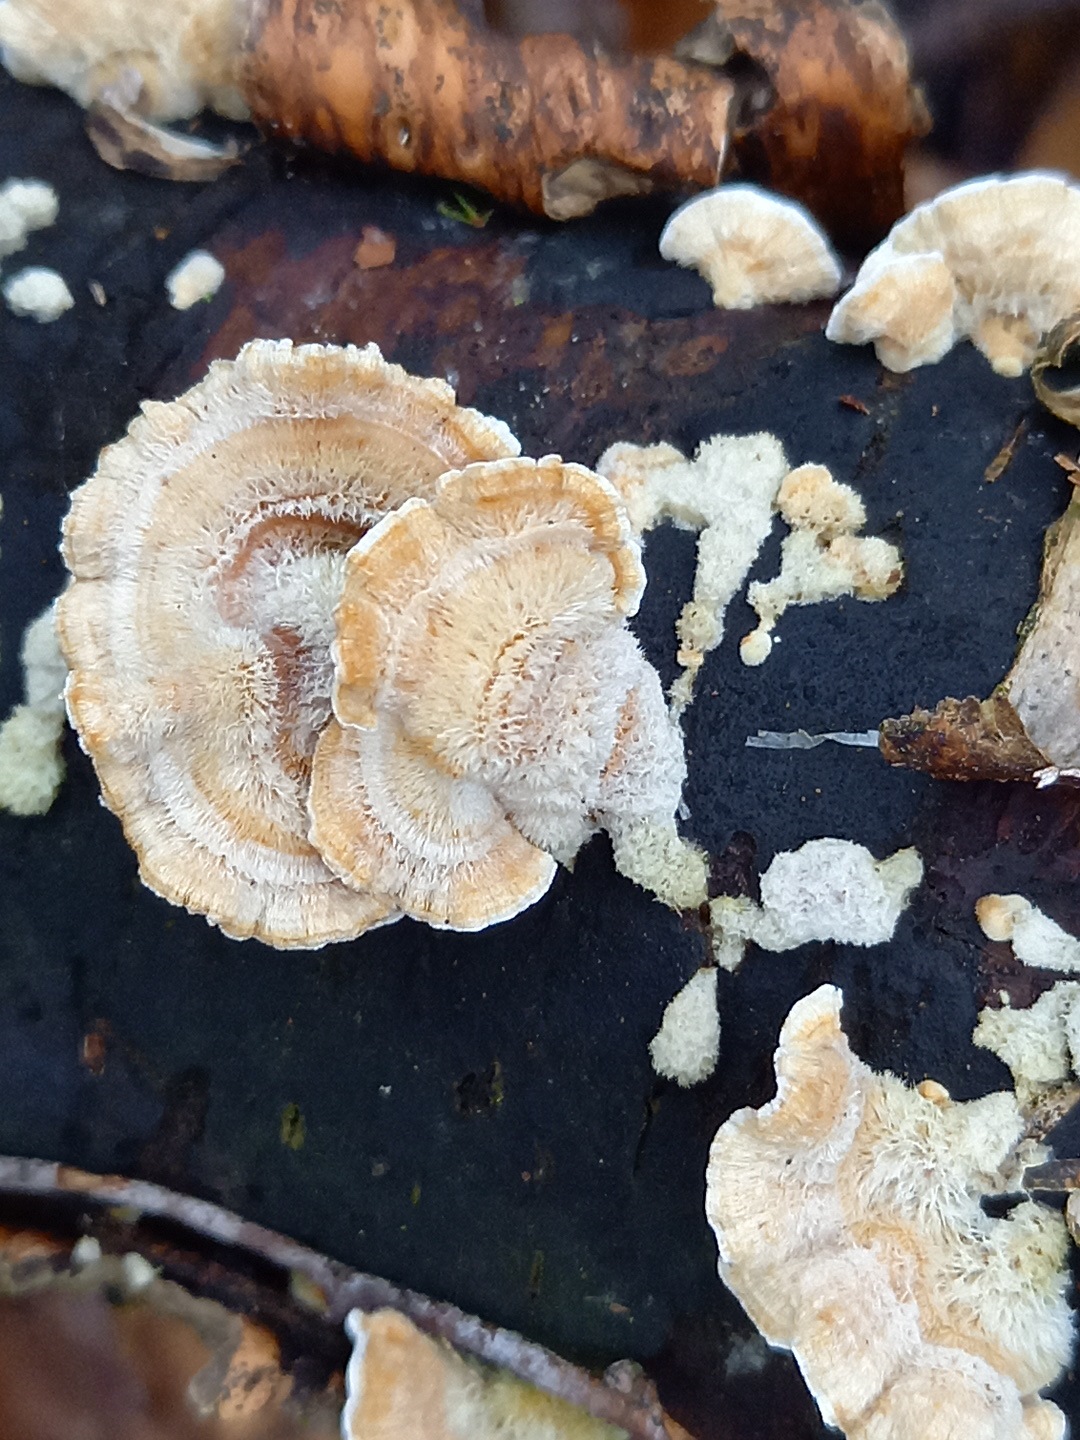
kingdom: Fungi
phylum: Basidiomycota
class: Agaricomycetes
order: Russulales
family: Stereaceae
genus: Stereum
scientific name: Stereum hirsutum
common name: håret lædersvamp
